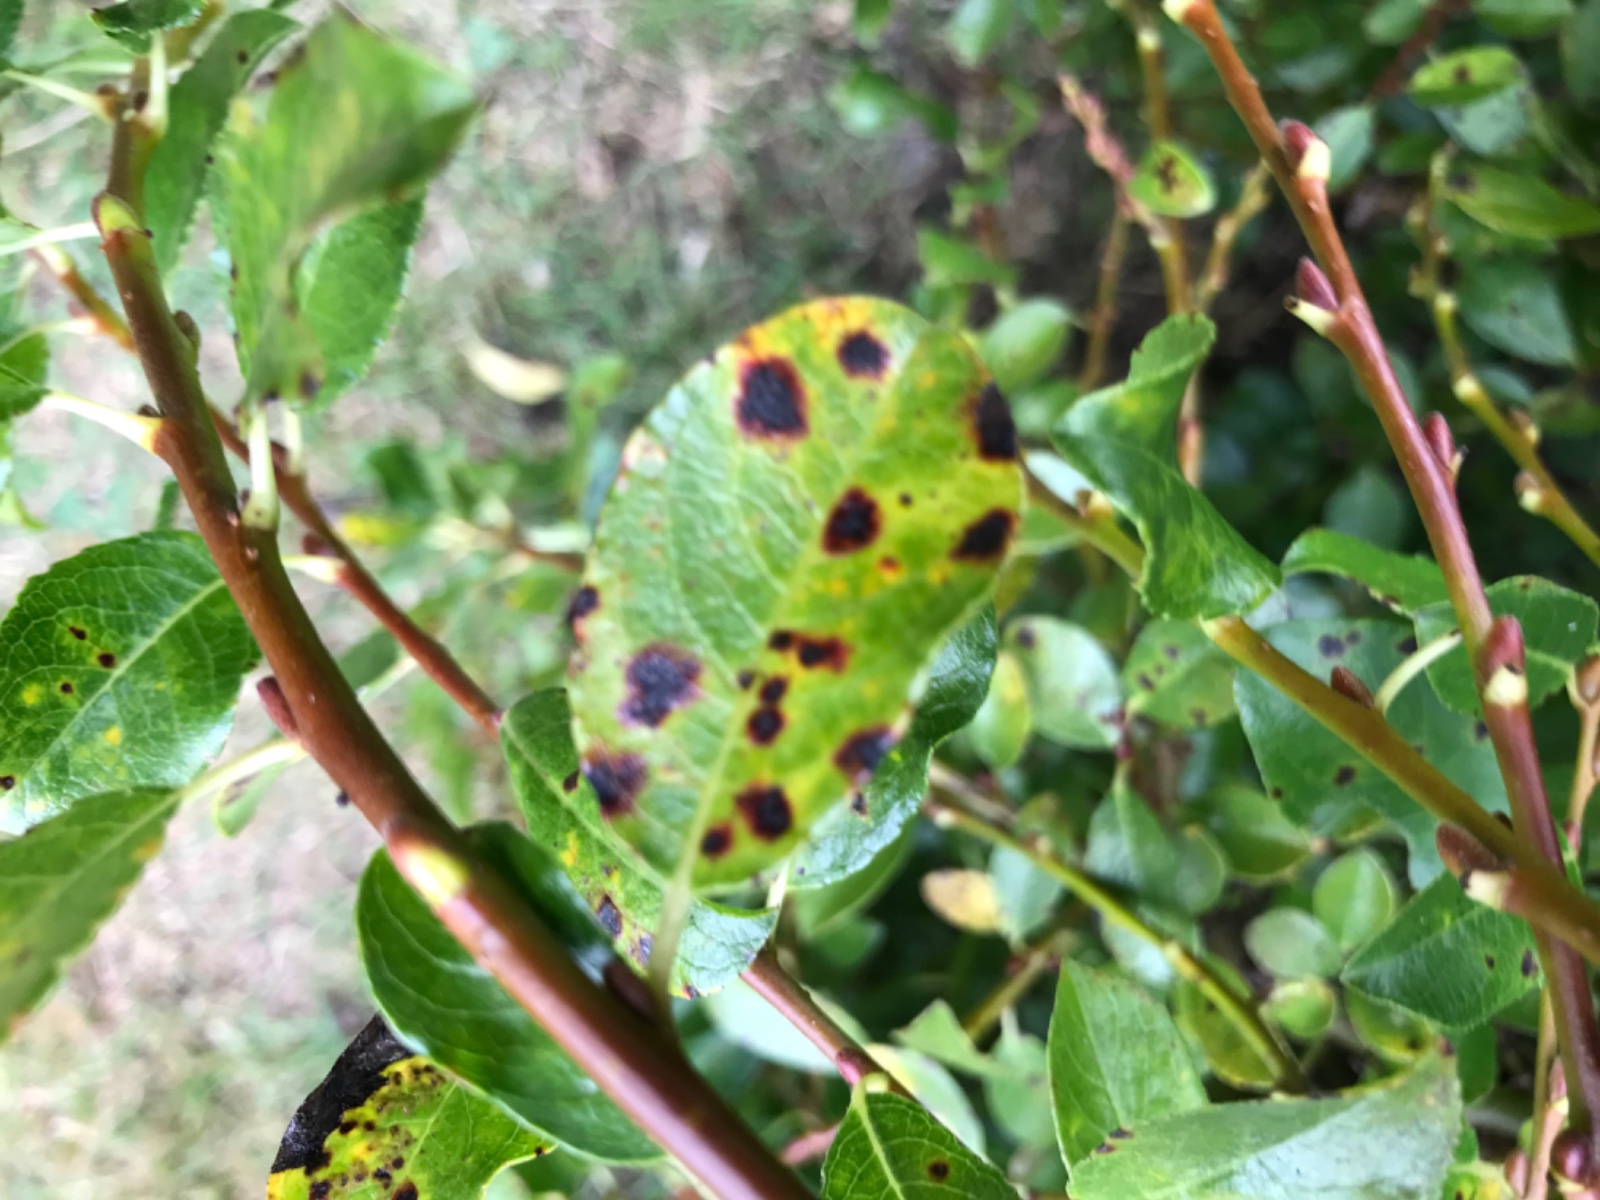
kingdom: Fungi
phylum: Ascomycota
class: Leotiomycetes
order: Rhytismatales
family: Rhytismataceae
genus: Rhytisma
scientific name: Rhytisma salicinum
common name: pile-rynkeplet
